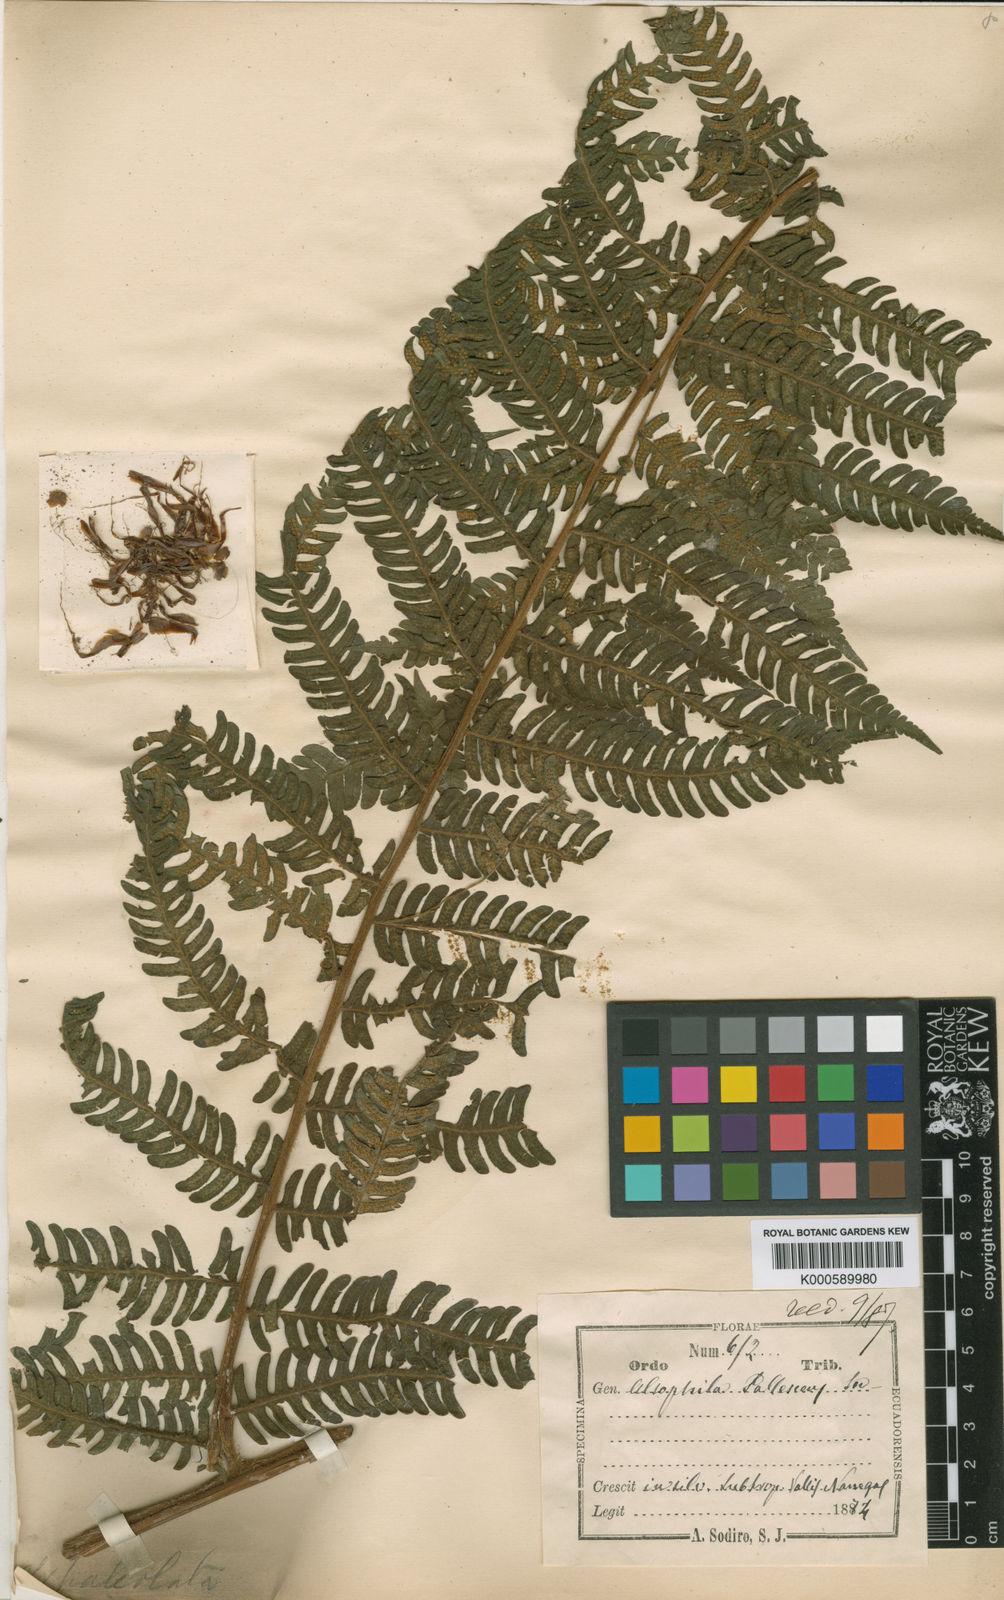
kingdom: Plantae
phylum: Tracheophyta
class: Polypodiopsida
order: Cyatheales
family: Cyatheaceae
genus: Cyathea
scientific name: Cyathea pallescens
